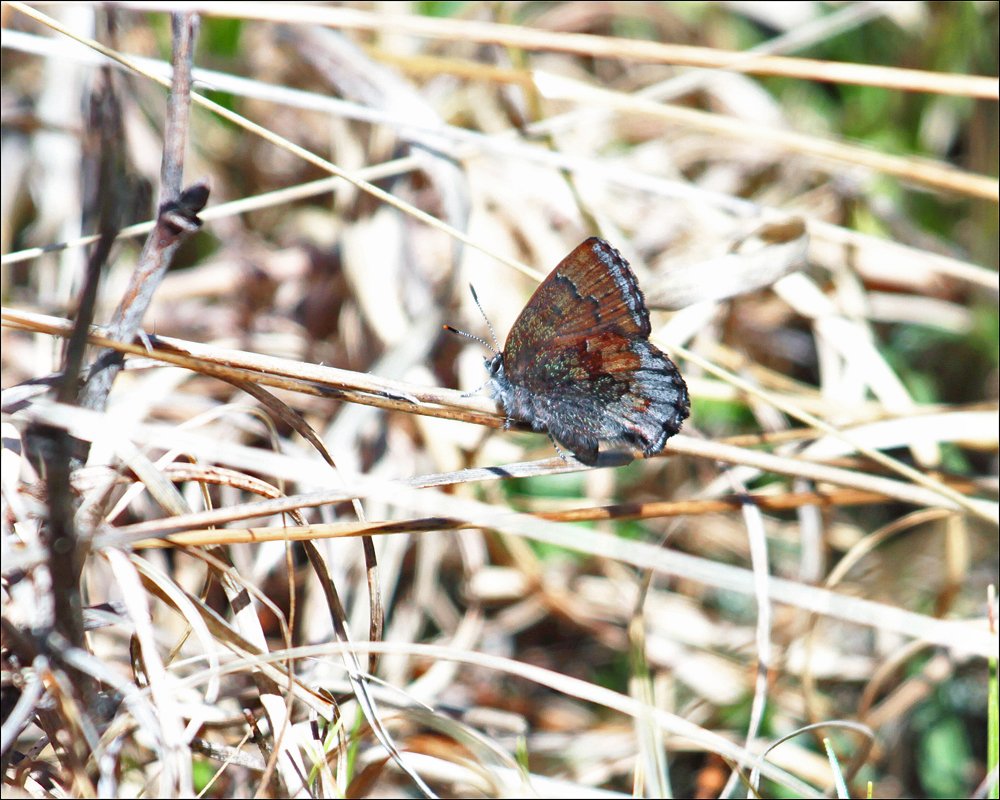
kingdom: Animalia
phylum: Arthropoda
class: Insecta
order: Lepidoptera
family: Lycaenidae
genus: Callophrys
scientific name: Callophrys polios
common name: Hoary Elfin
